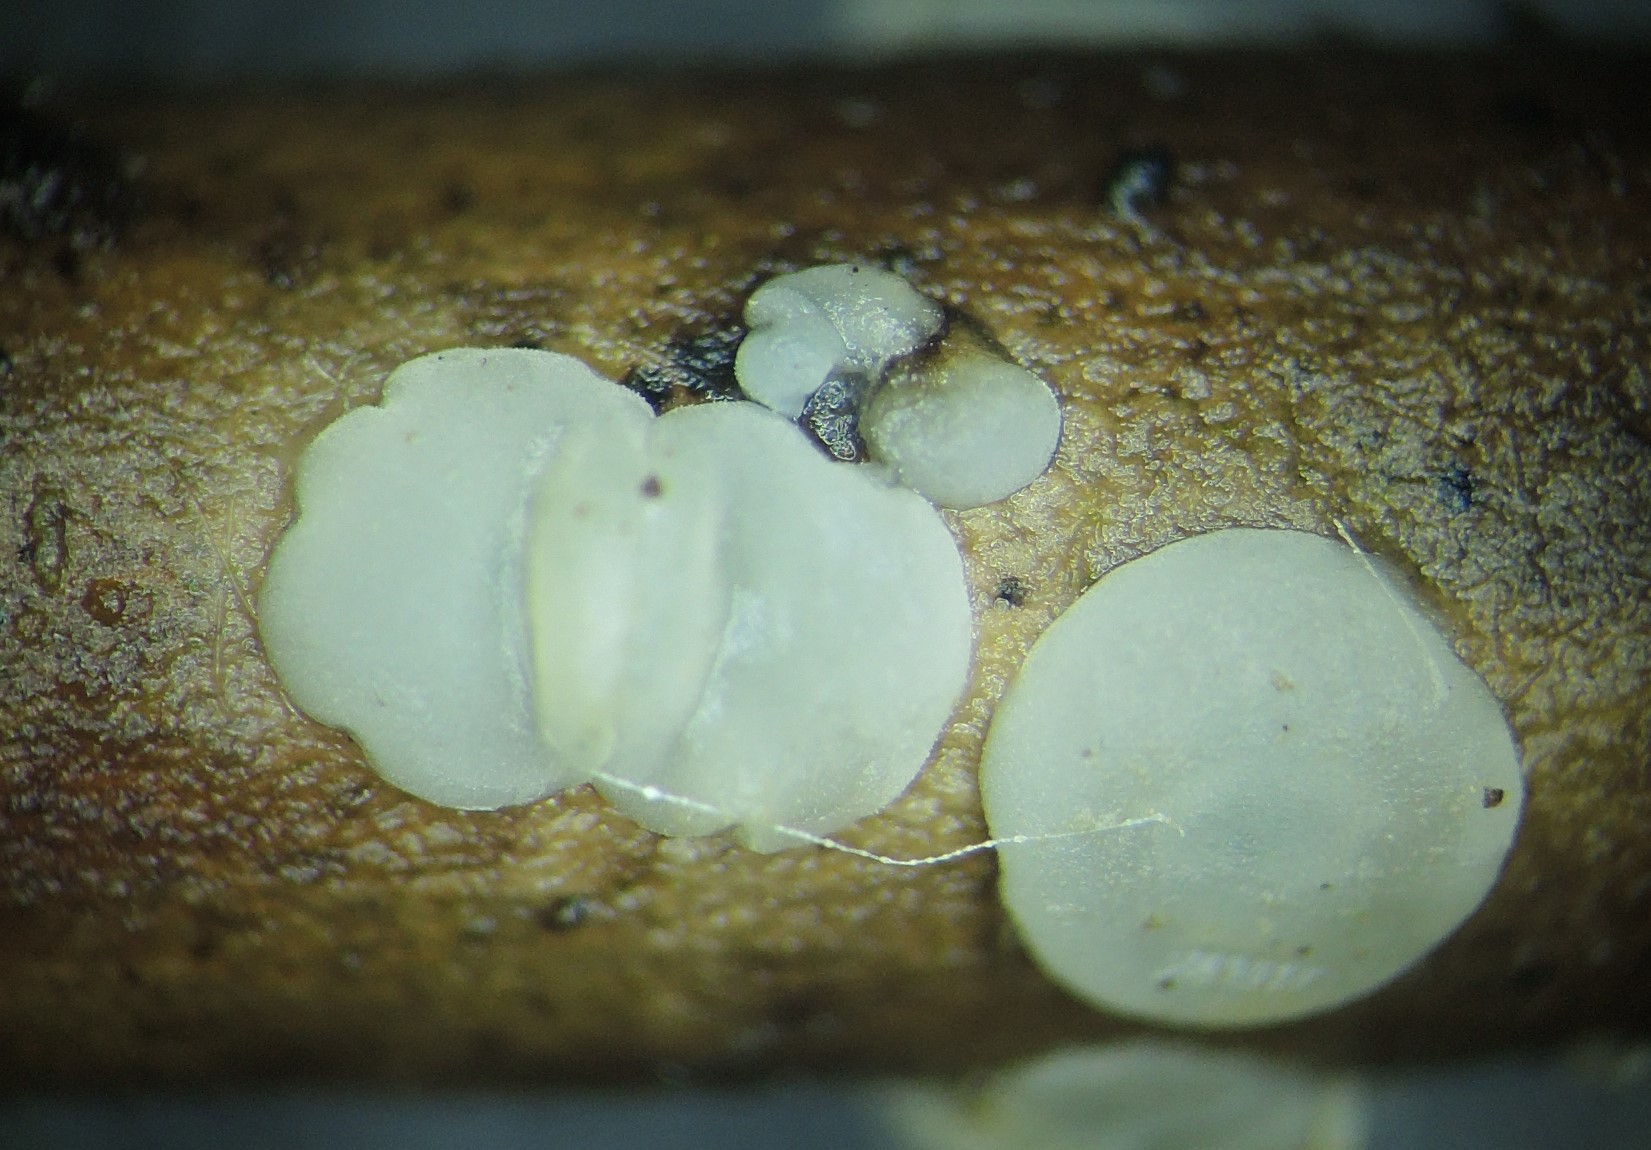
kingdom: Fungi
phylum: Ascomycota
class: Leotiomycetes
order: Helotiales
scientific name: Helotiales
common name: stilkskiveordenen
